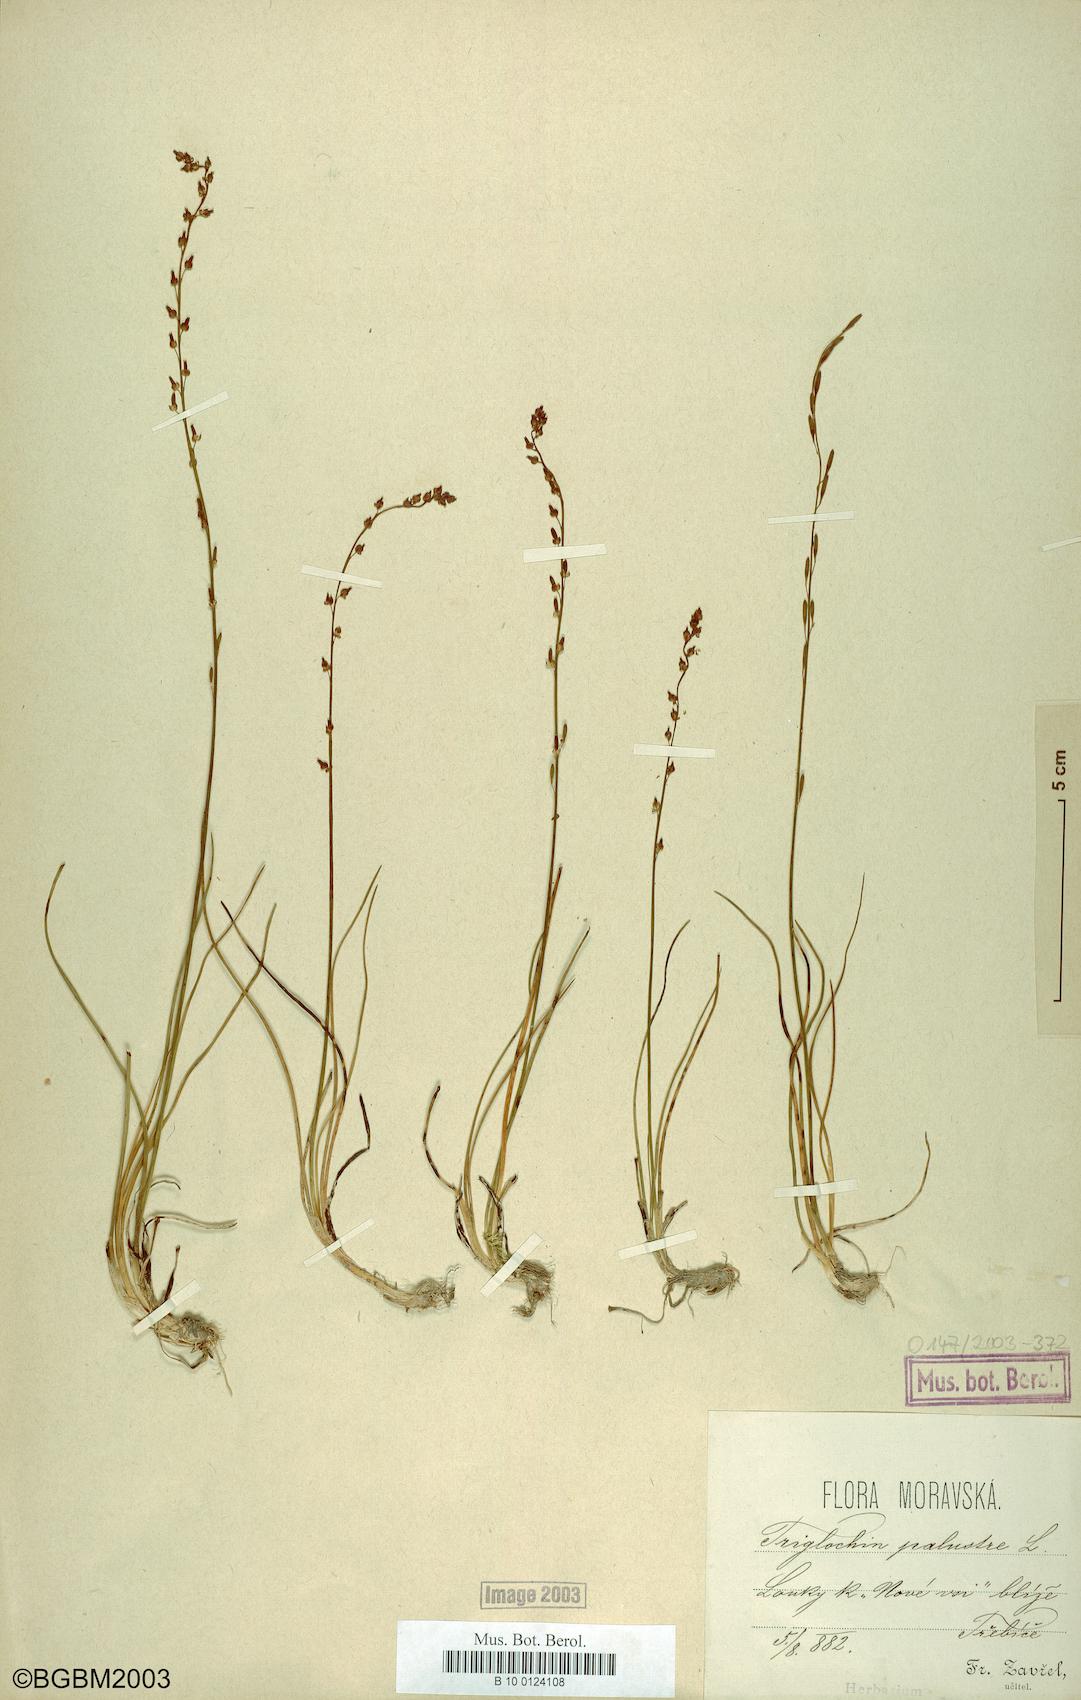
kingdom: Plantae
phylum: Tracheophyta
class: Liliopsida
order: Alismatales
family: Juncaginaceae
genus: Triglochin
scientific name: Triglochin palustris
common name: Marsh arrowgrass
